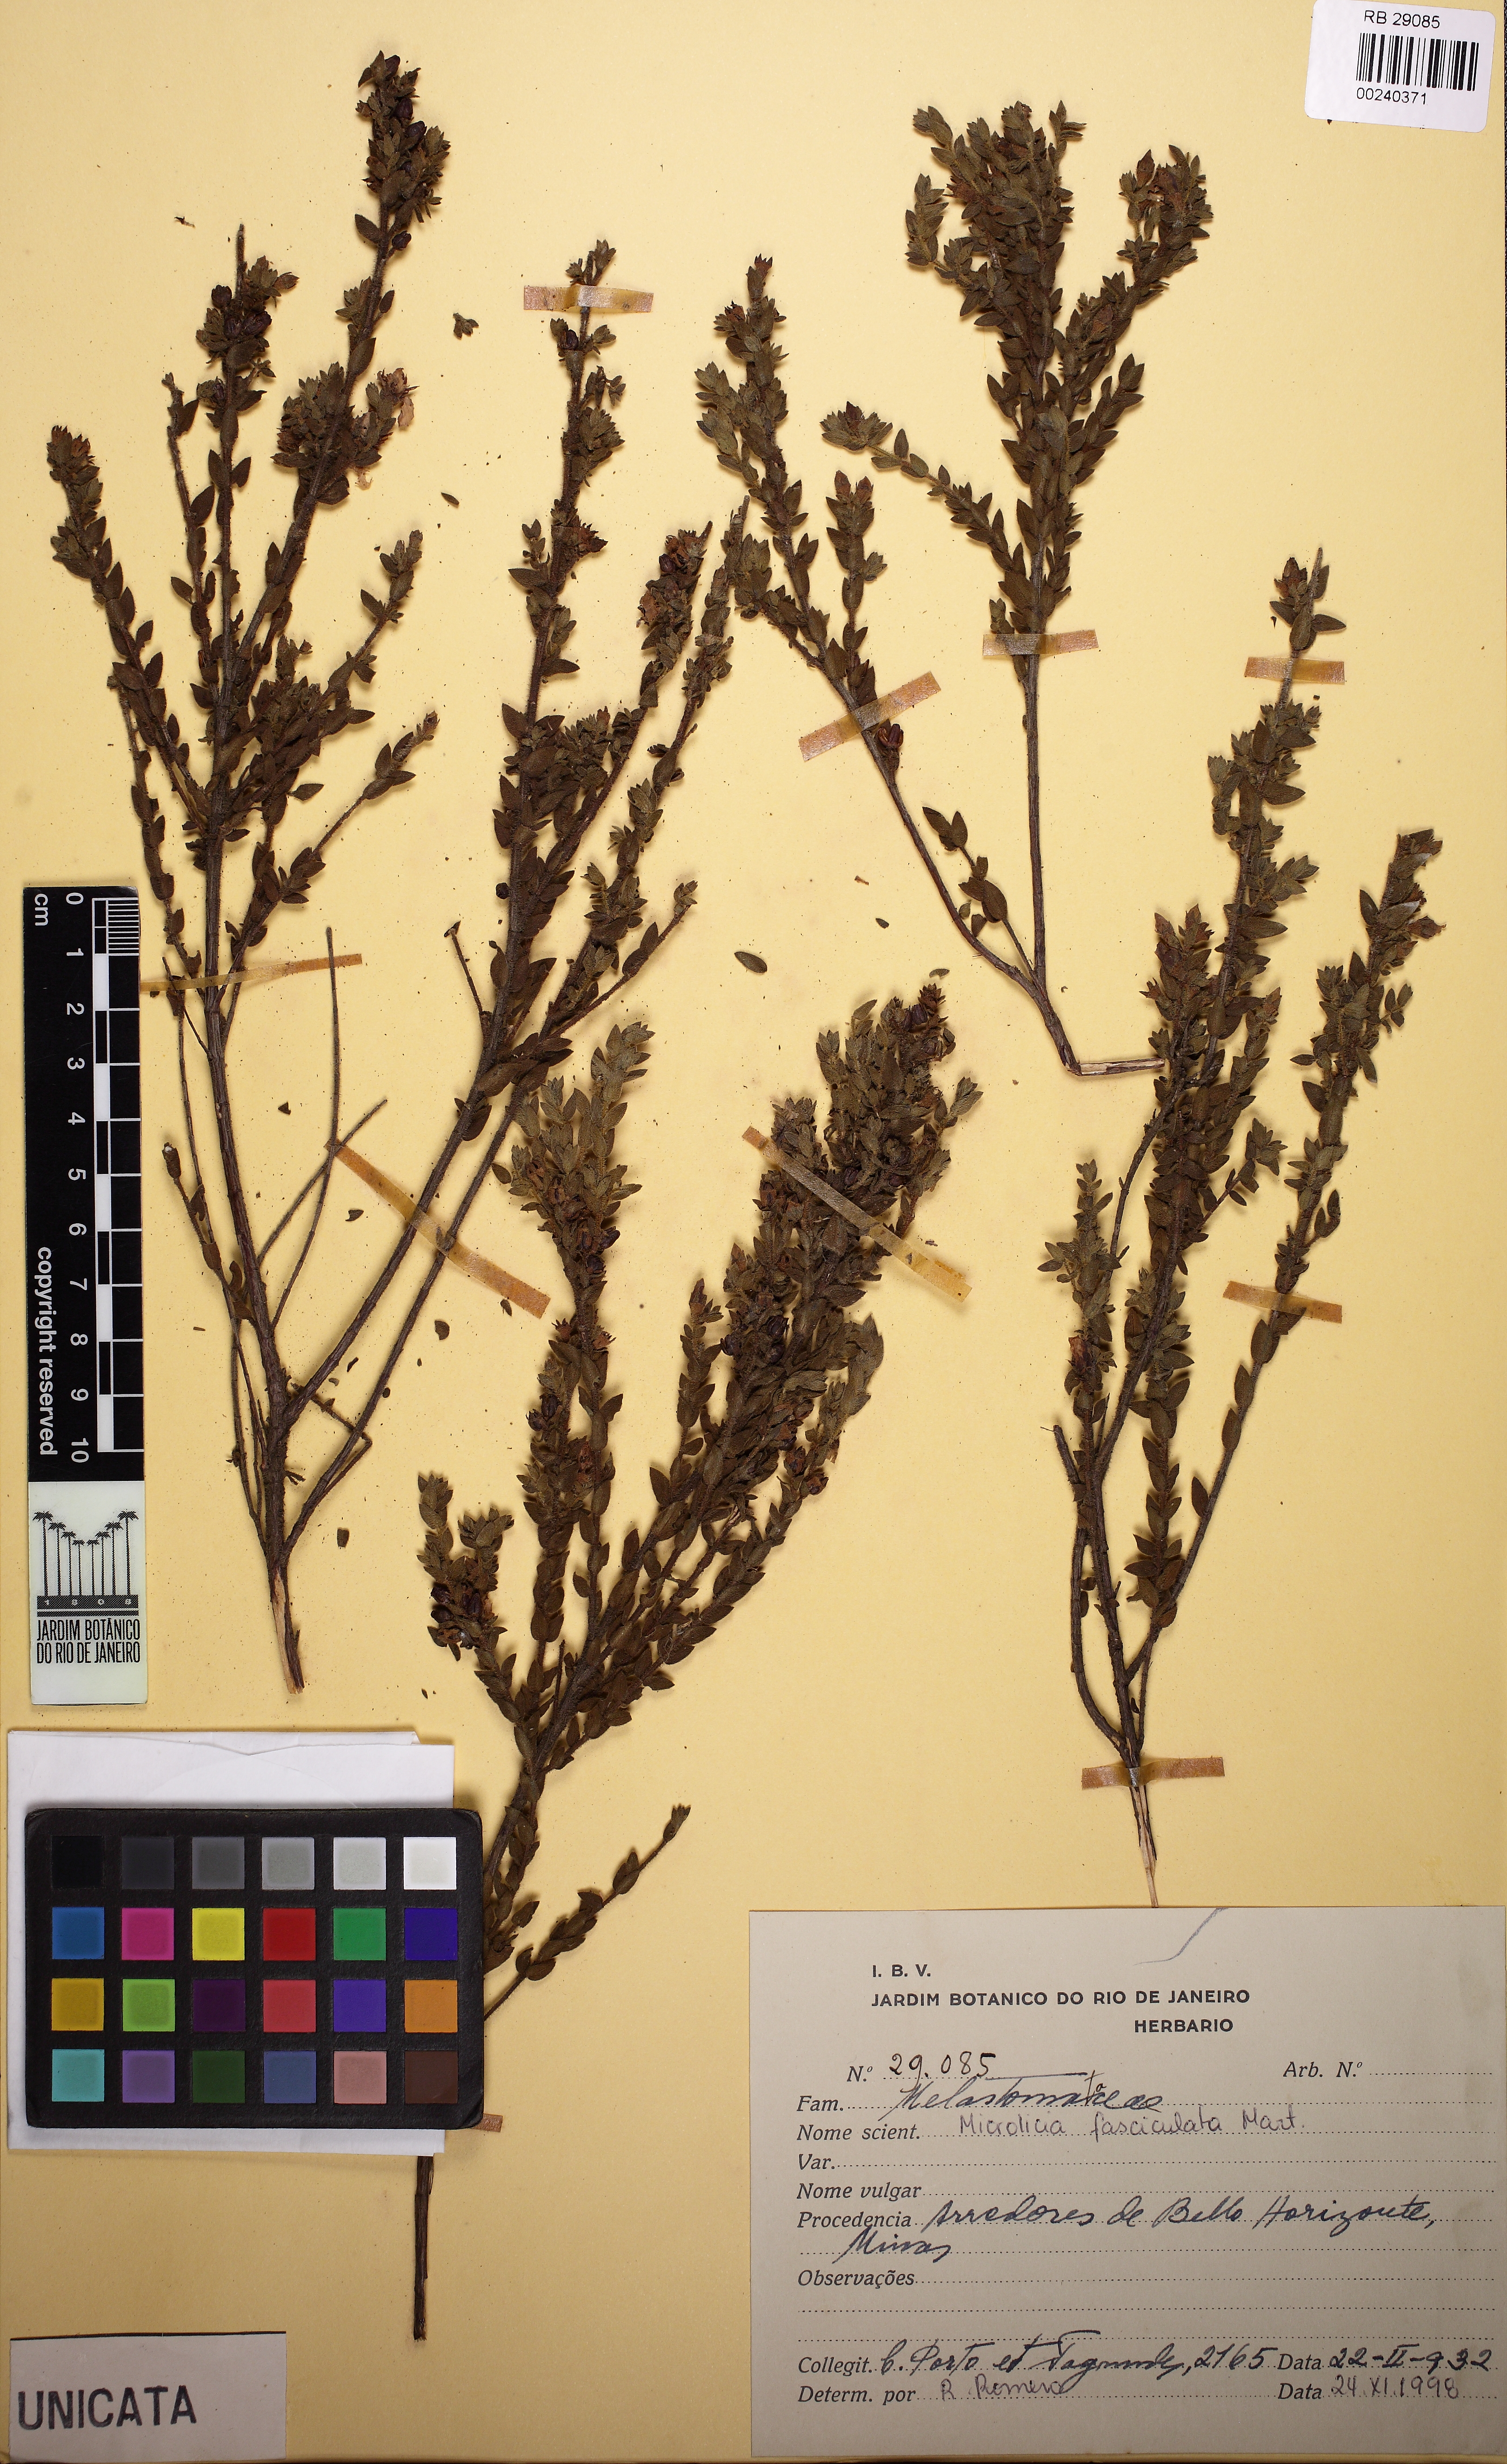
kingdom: Plantae
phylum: Tracheophyta
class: Magnoliopsida
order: Myrtales
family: Melastomataceae
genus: Microlicia
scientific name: Microlicia hirsuta
